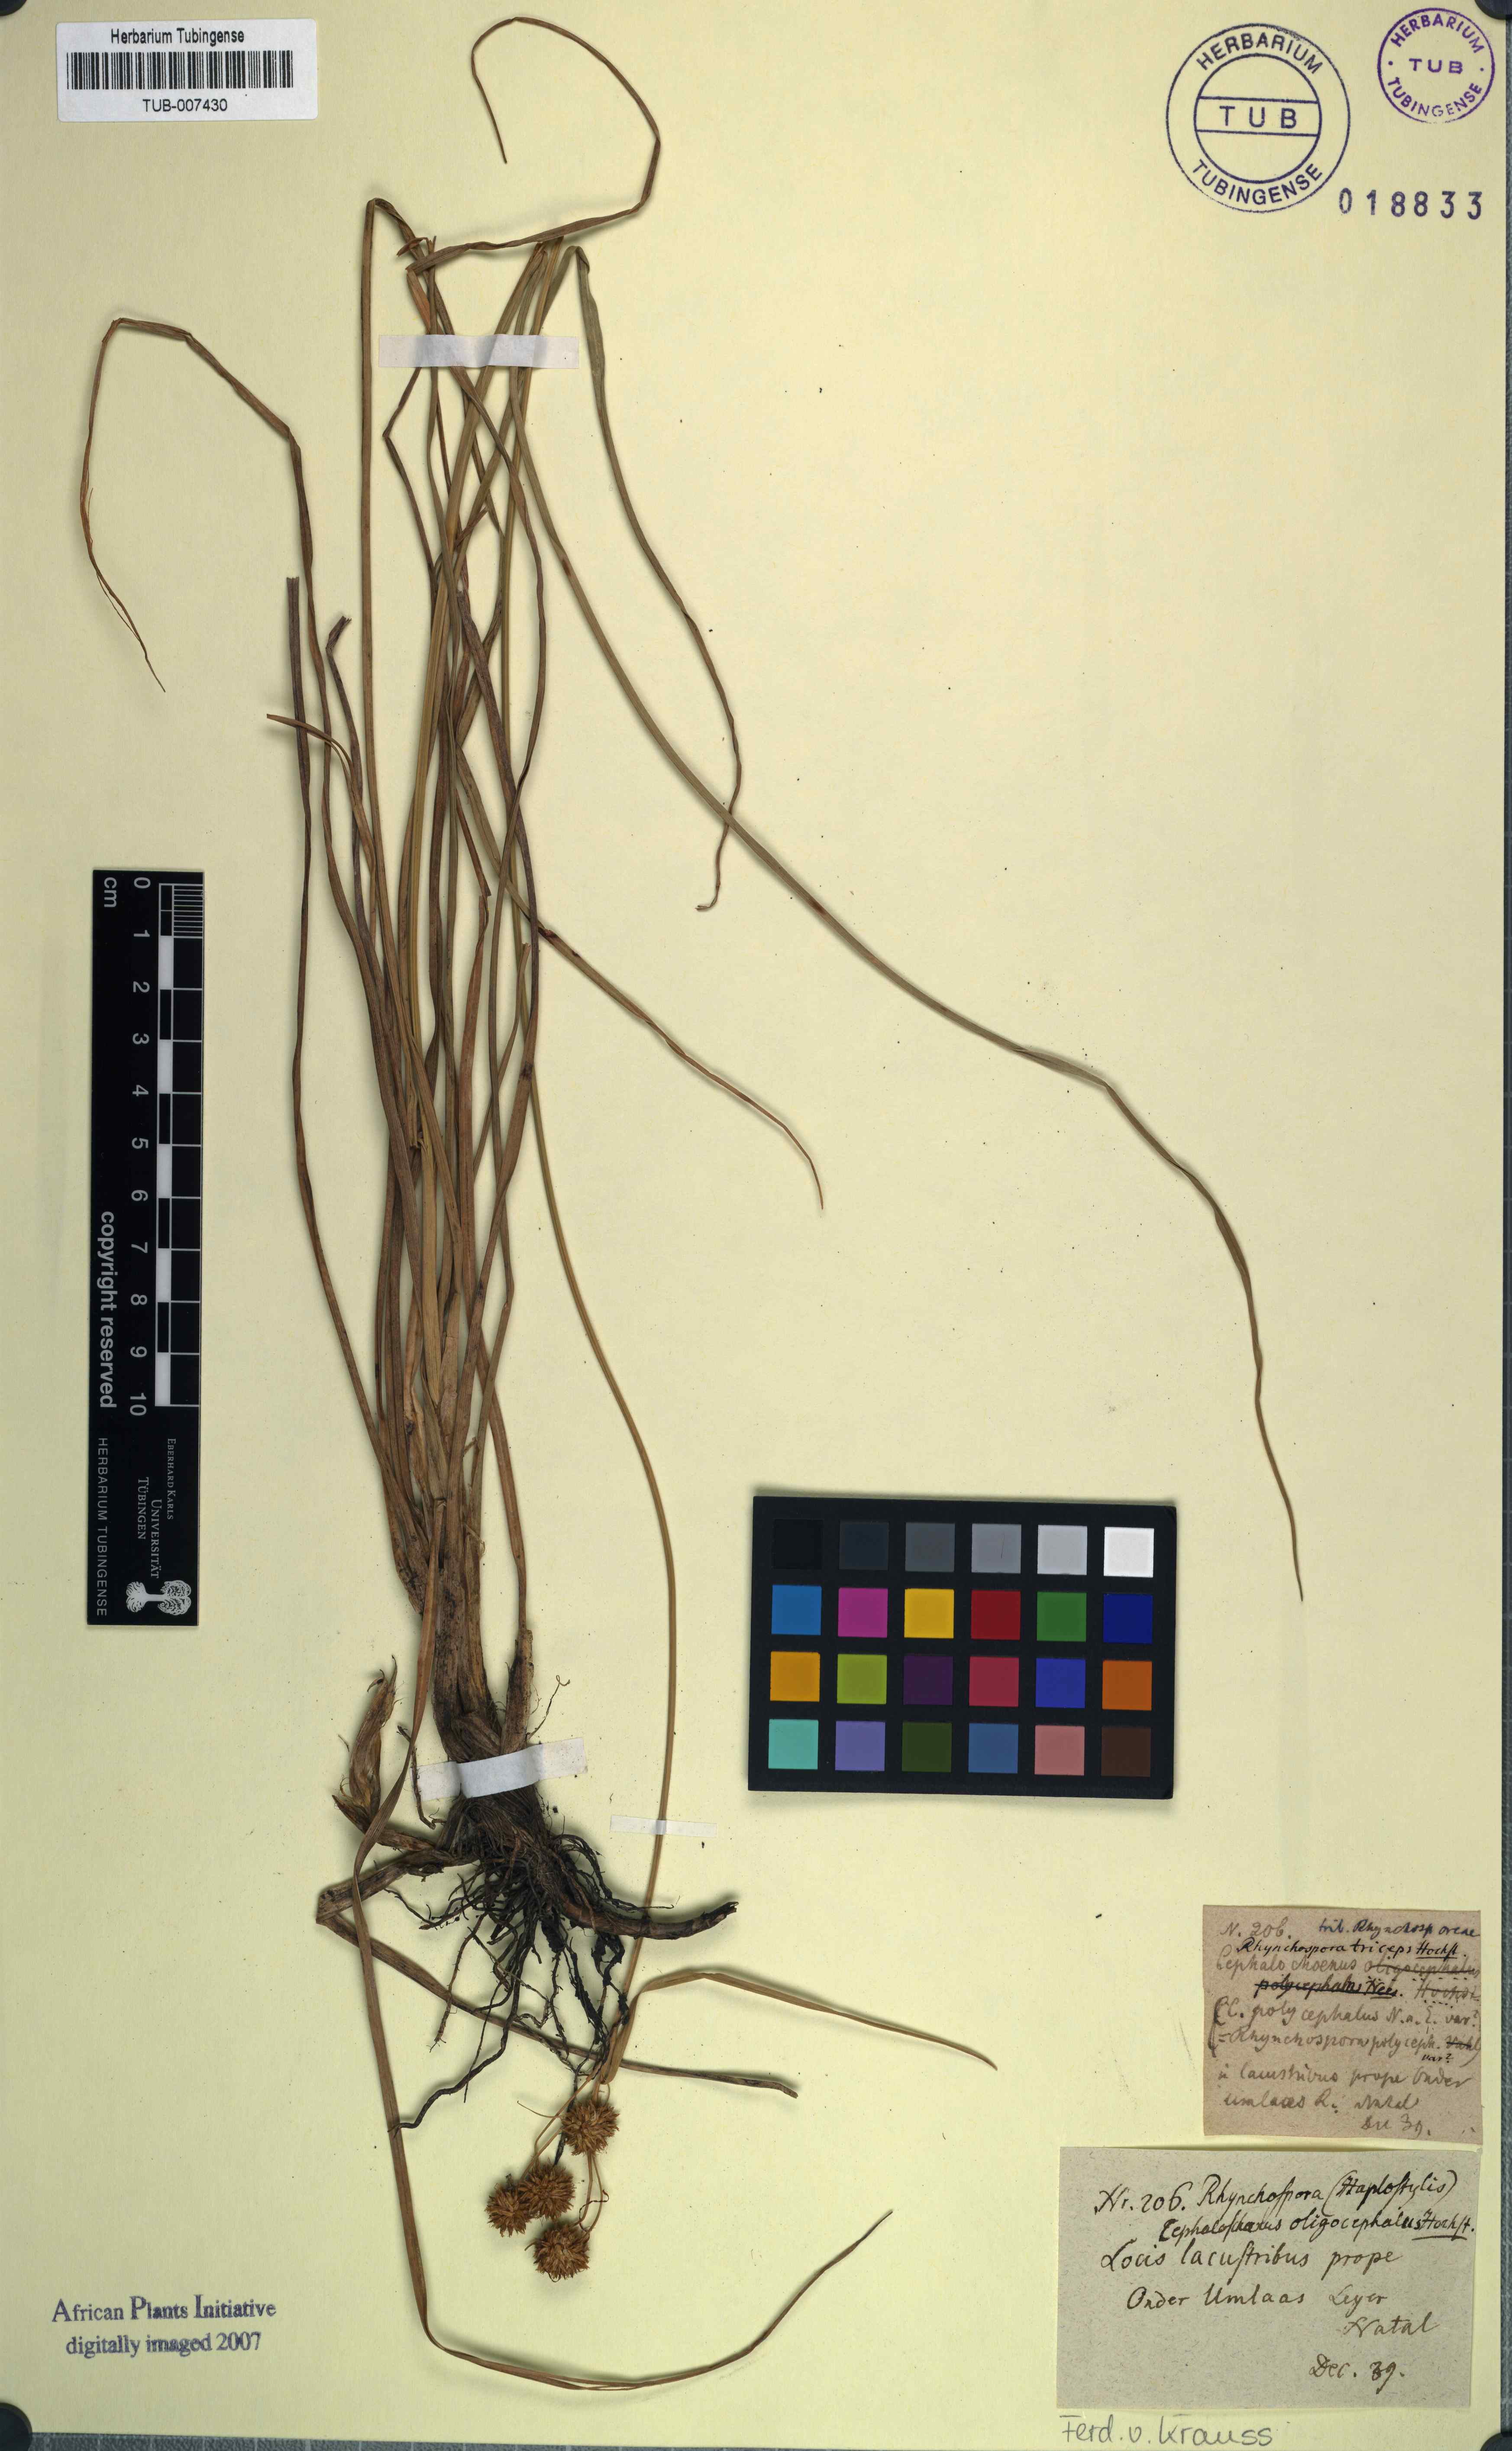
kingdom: Plantae
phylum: Tracheophyta
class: Liliopsida
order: Poales
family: Cyperaceae
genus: Rhynchospora
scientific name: Rhynchospora holoschoenoides
